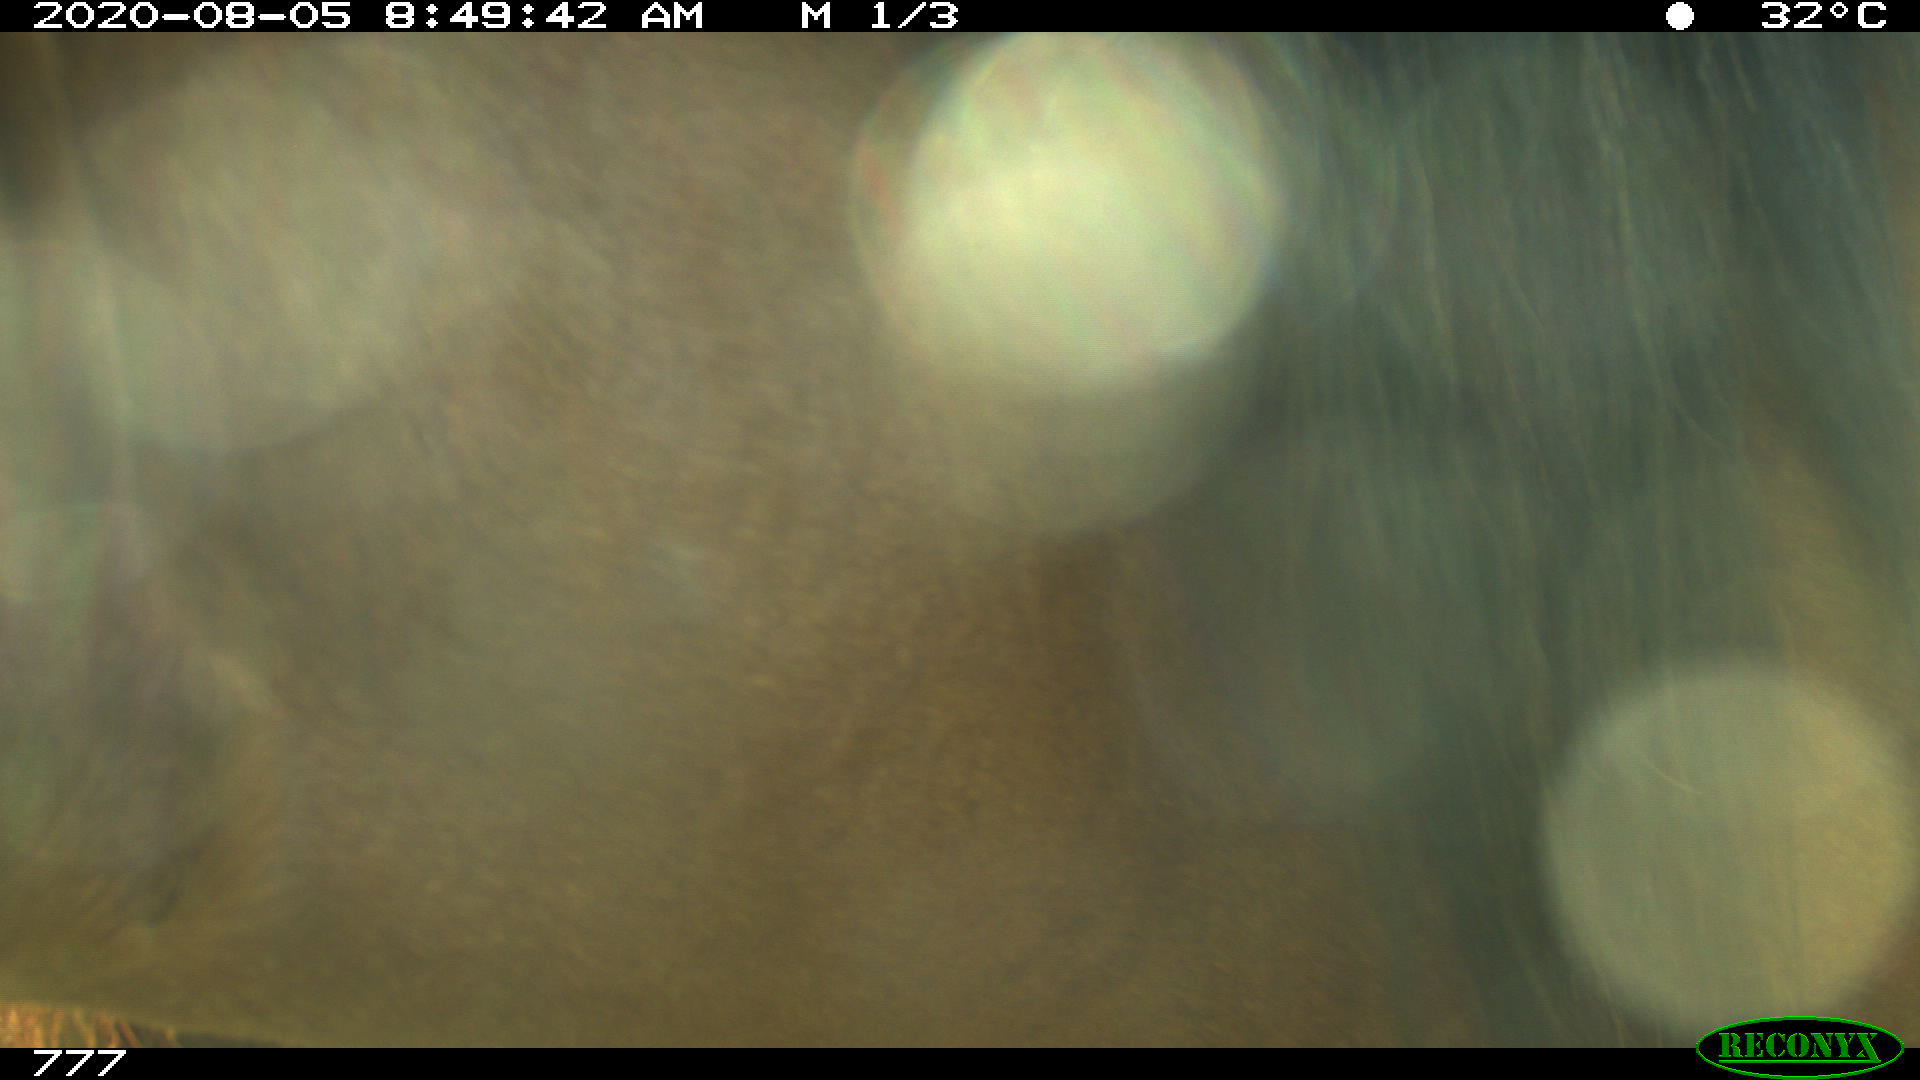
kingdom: Animalia
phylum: Chordata
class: Mammalia
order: Perissodactyla
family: Equidae
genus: Equus
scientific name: Equus caballus
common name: Horse
